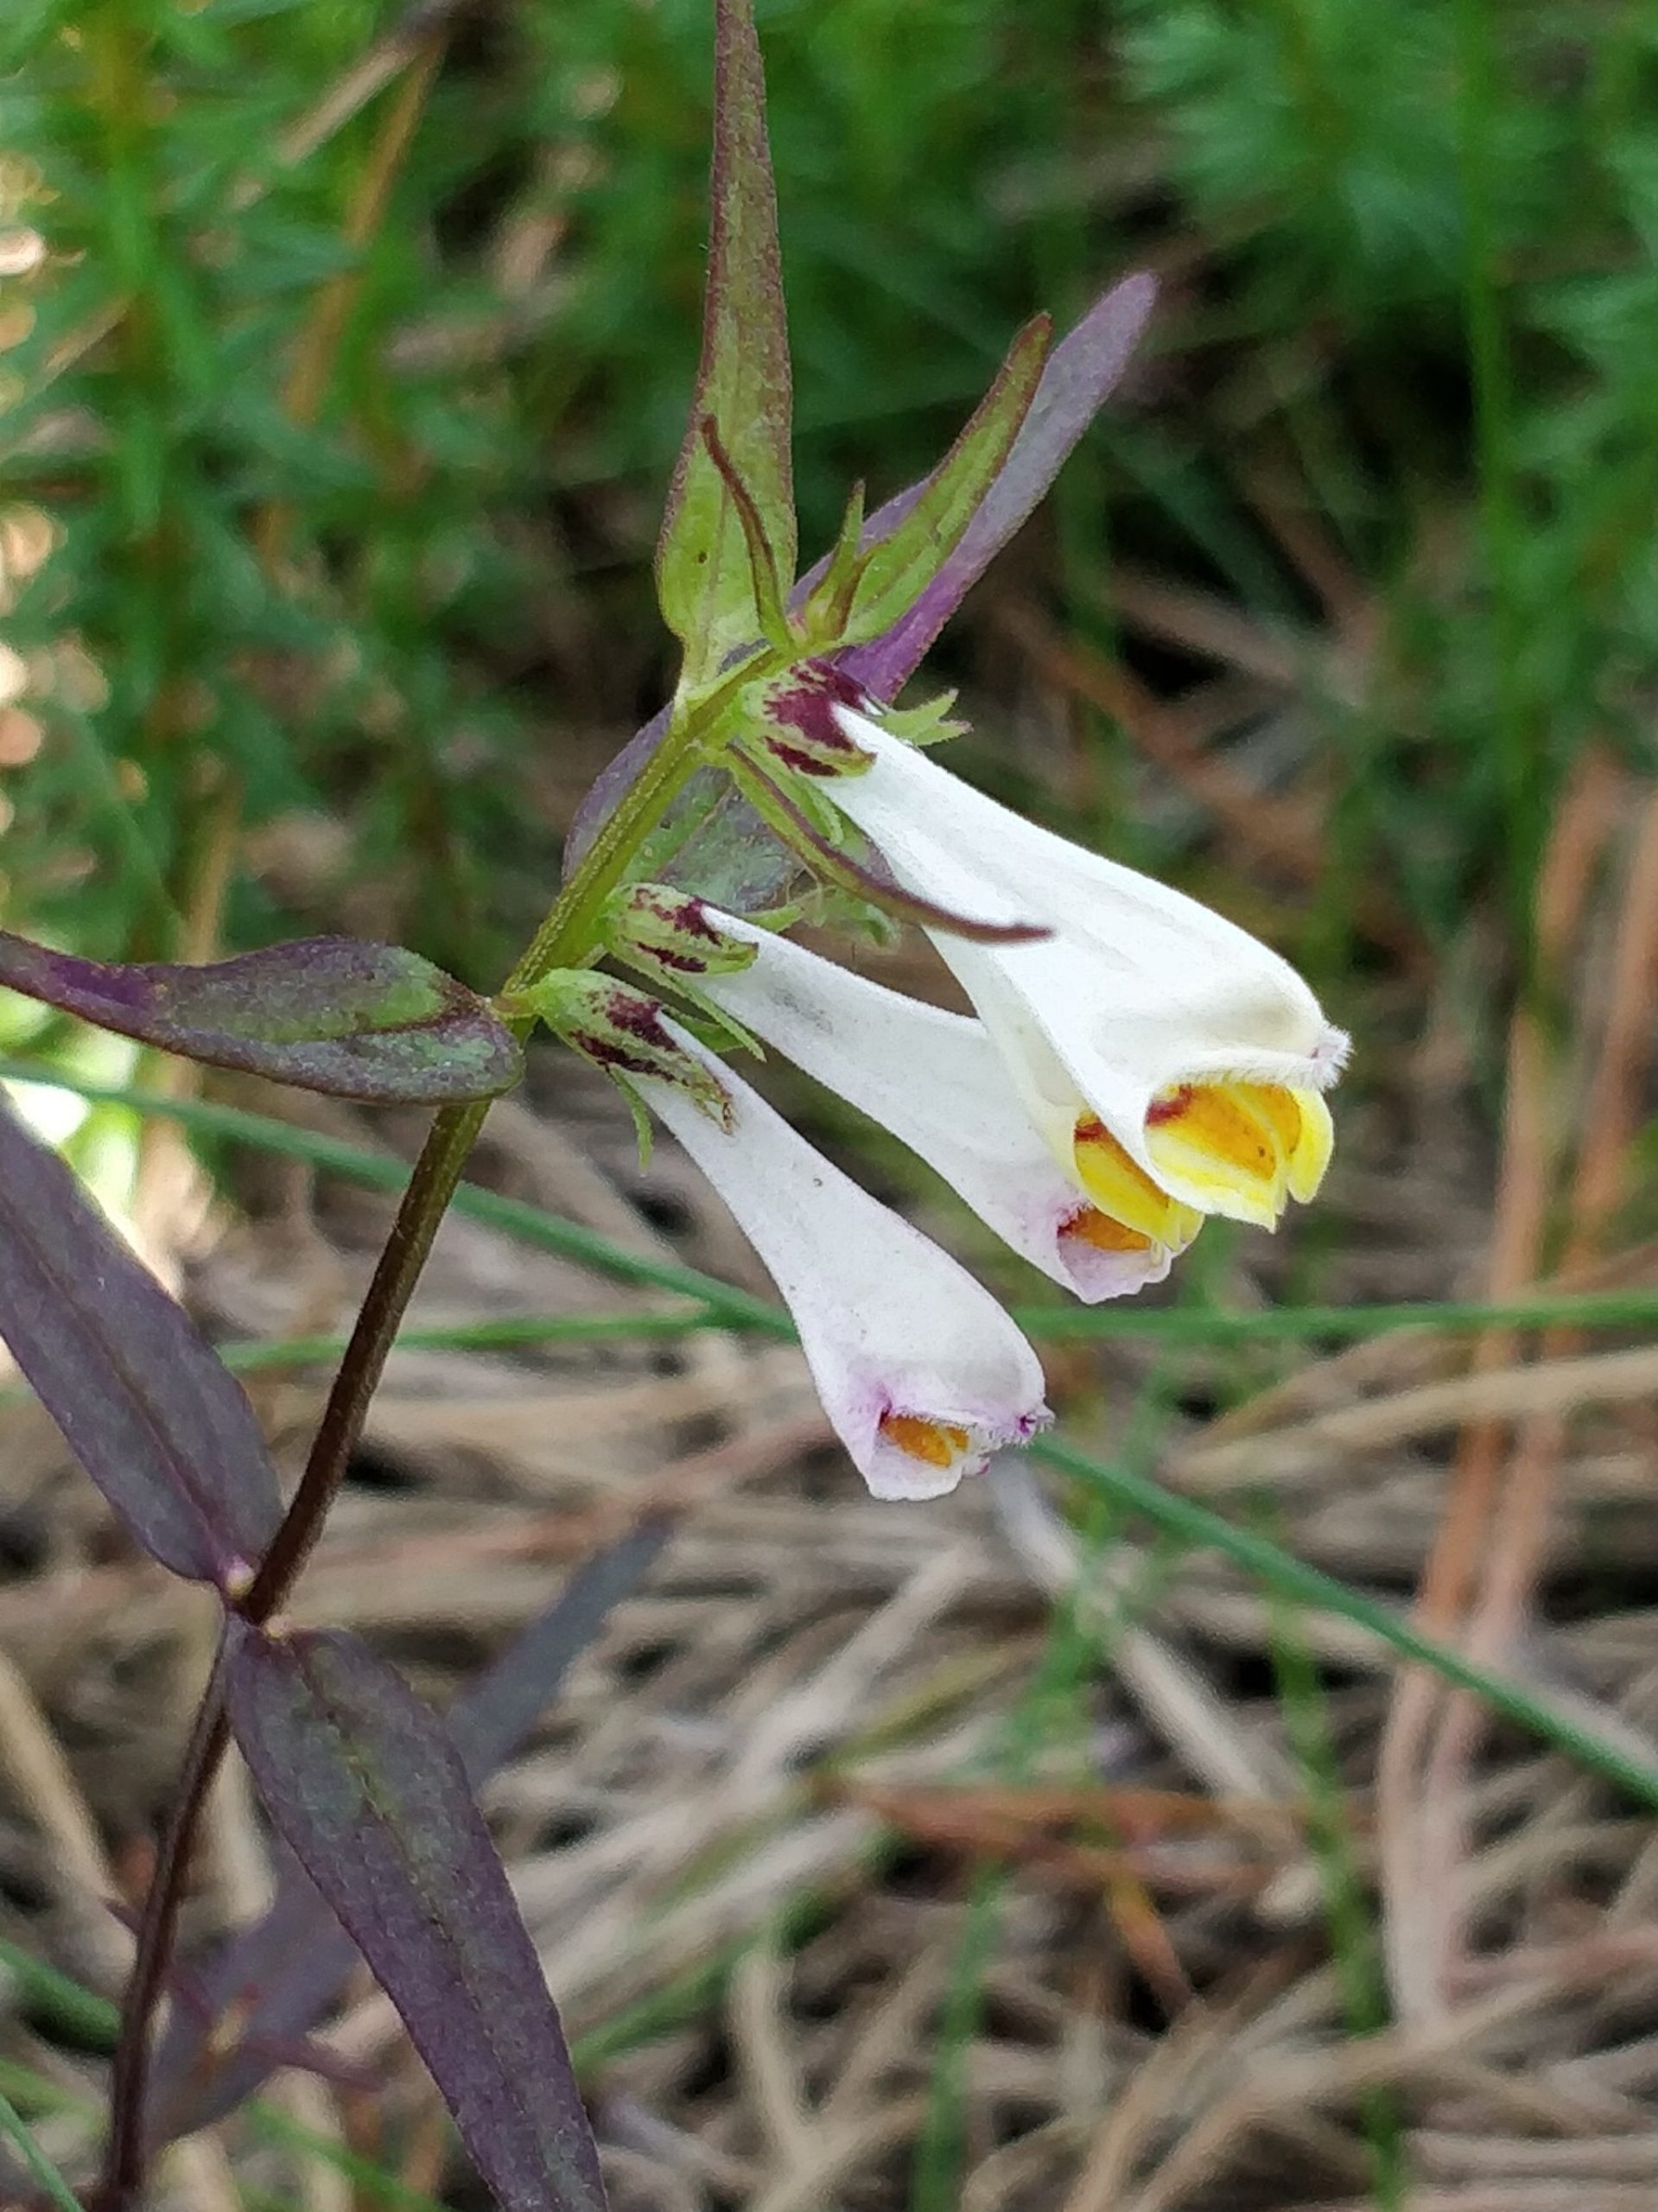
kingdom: Plantae
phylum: Tracheophyta
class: Magnoliopsida
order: Lamiales
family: Orobanchaceae
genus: Melampyrum
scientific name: Melampyrum pratense
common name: Almindelig kohvede
